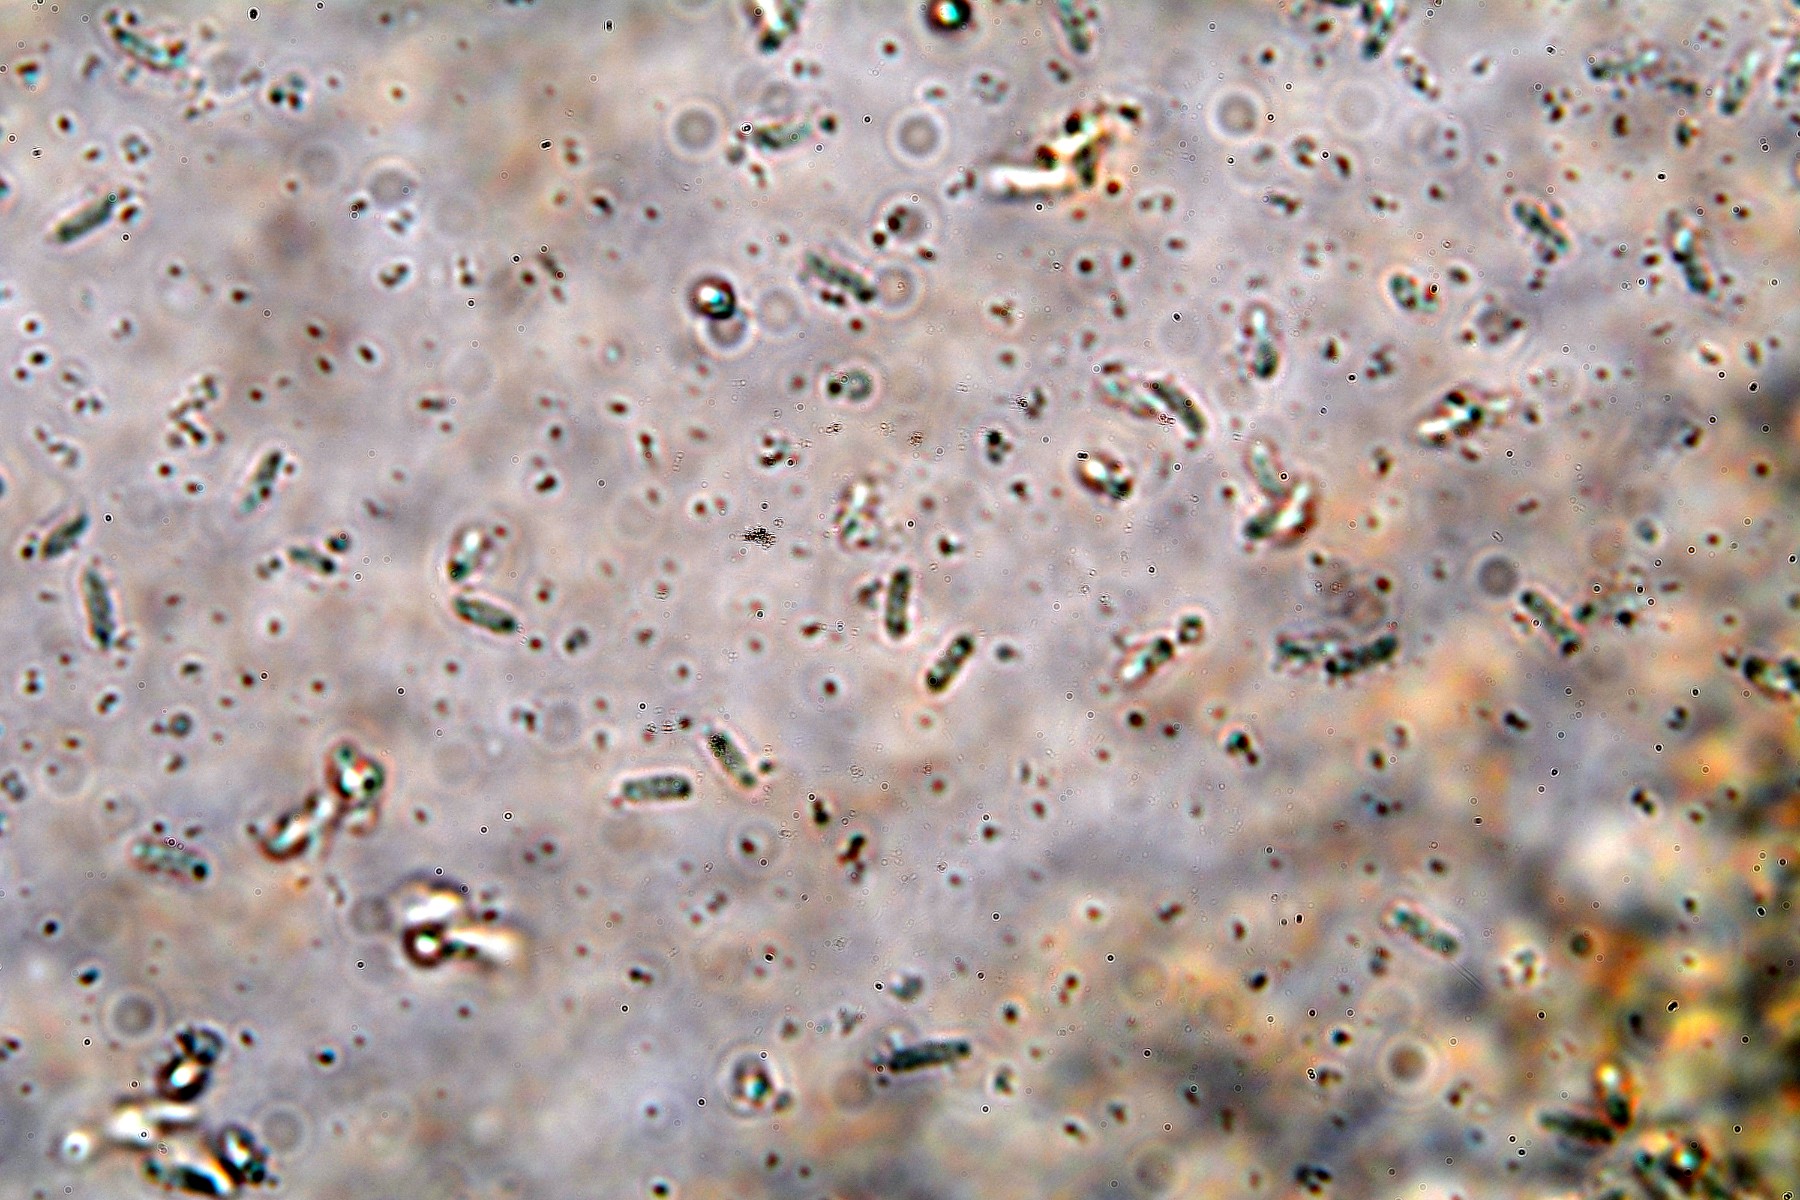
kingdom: Fungi
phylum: Ascomycota
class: Sordariomycetes
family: Thyridiaceae
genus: Thyronectria
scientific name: Thyronectria cucurbitula
